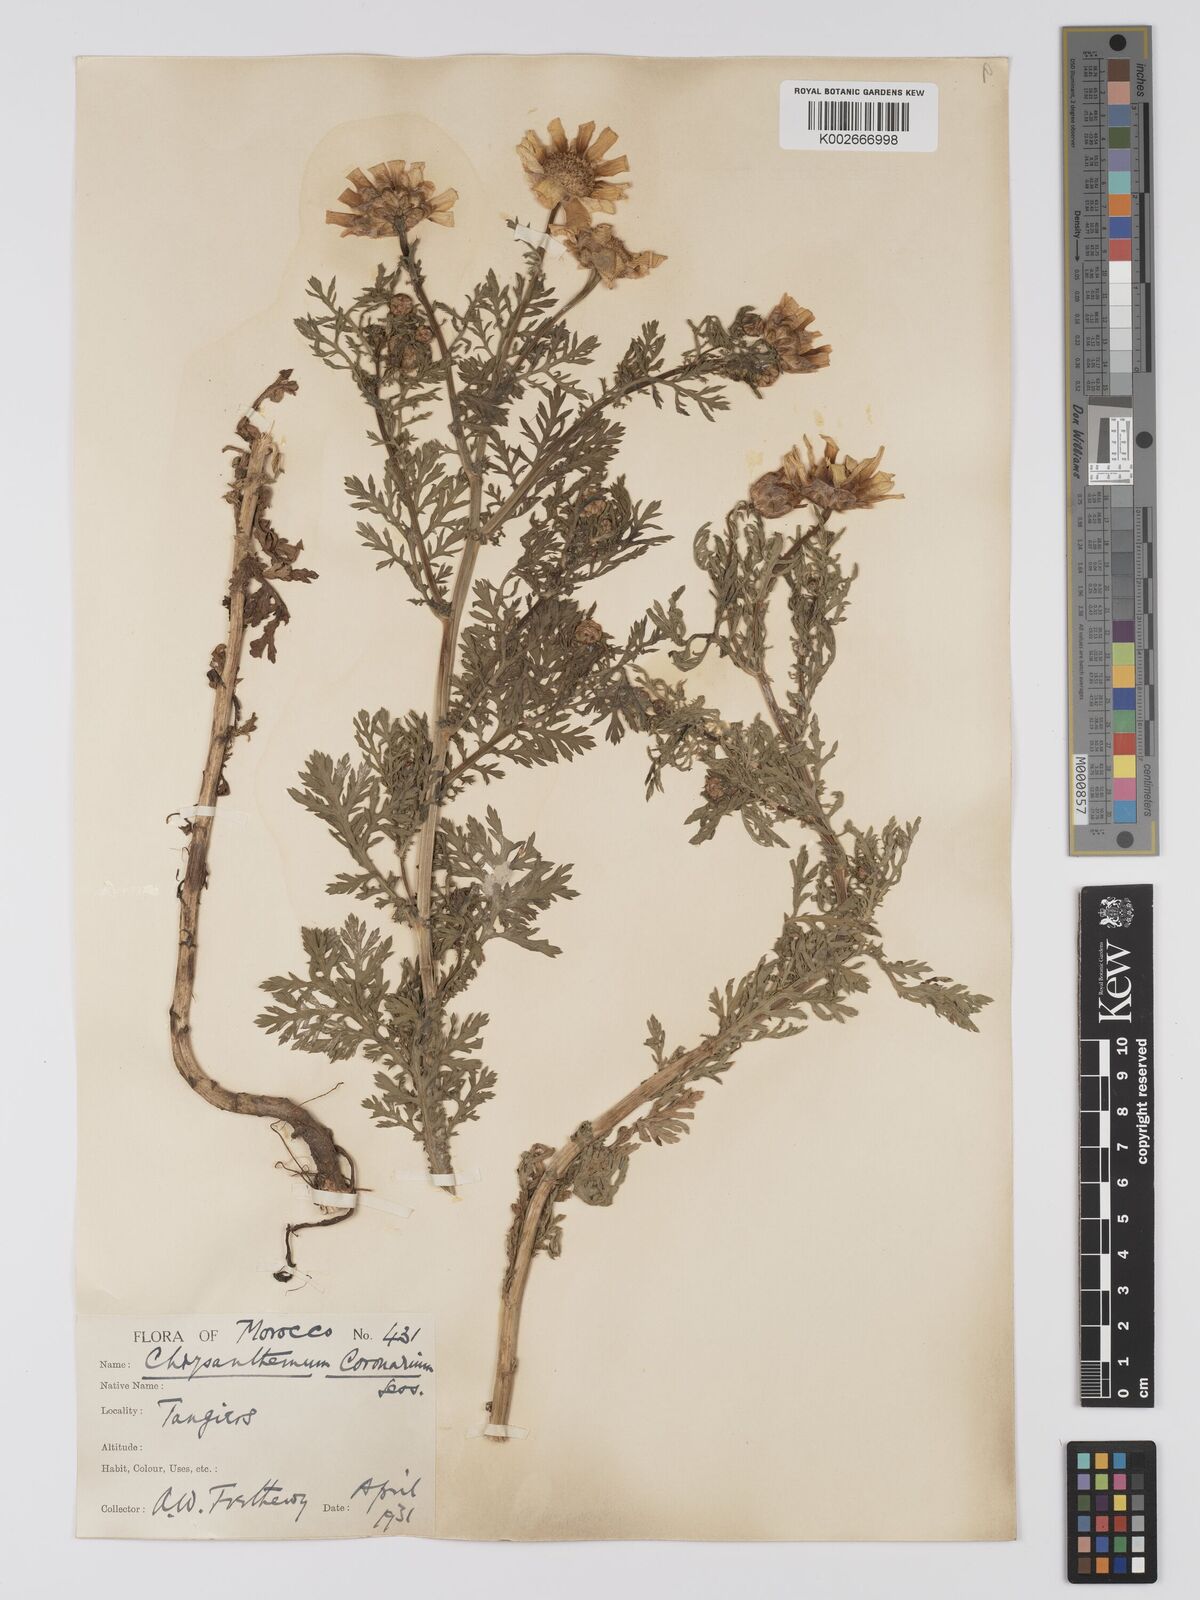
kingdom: Plantae
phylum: Tracheophyta
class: Magnoliopsida
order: Asterales
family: Asteraceae
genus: Glebionis
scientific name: Glebionis coronaria
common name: Crowndaisy
